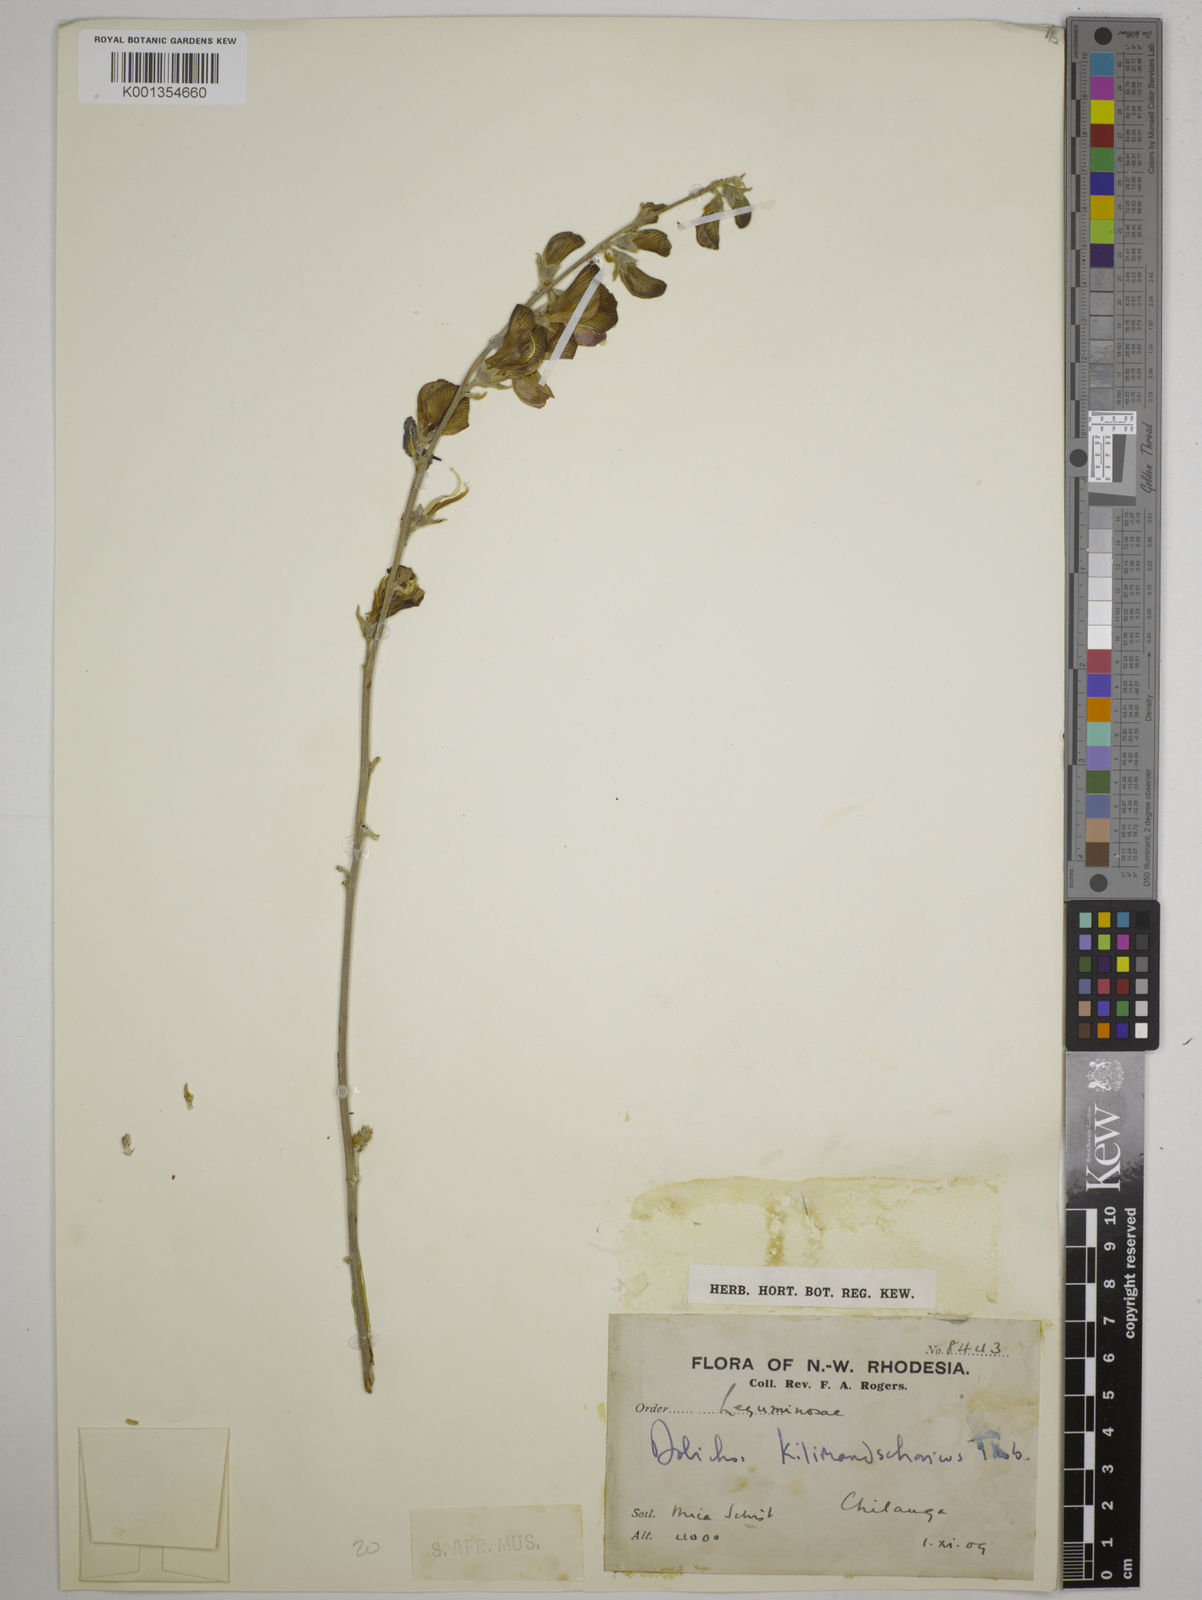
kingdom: Plantae
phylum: Tracheophyta
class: Magnoliopsida
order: Fabales
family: Fabaceae
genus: Dolichos
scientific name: Dolichos kilimandscharicus
